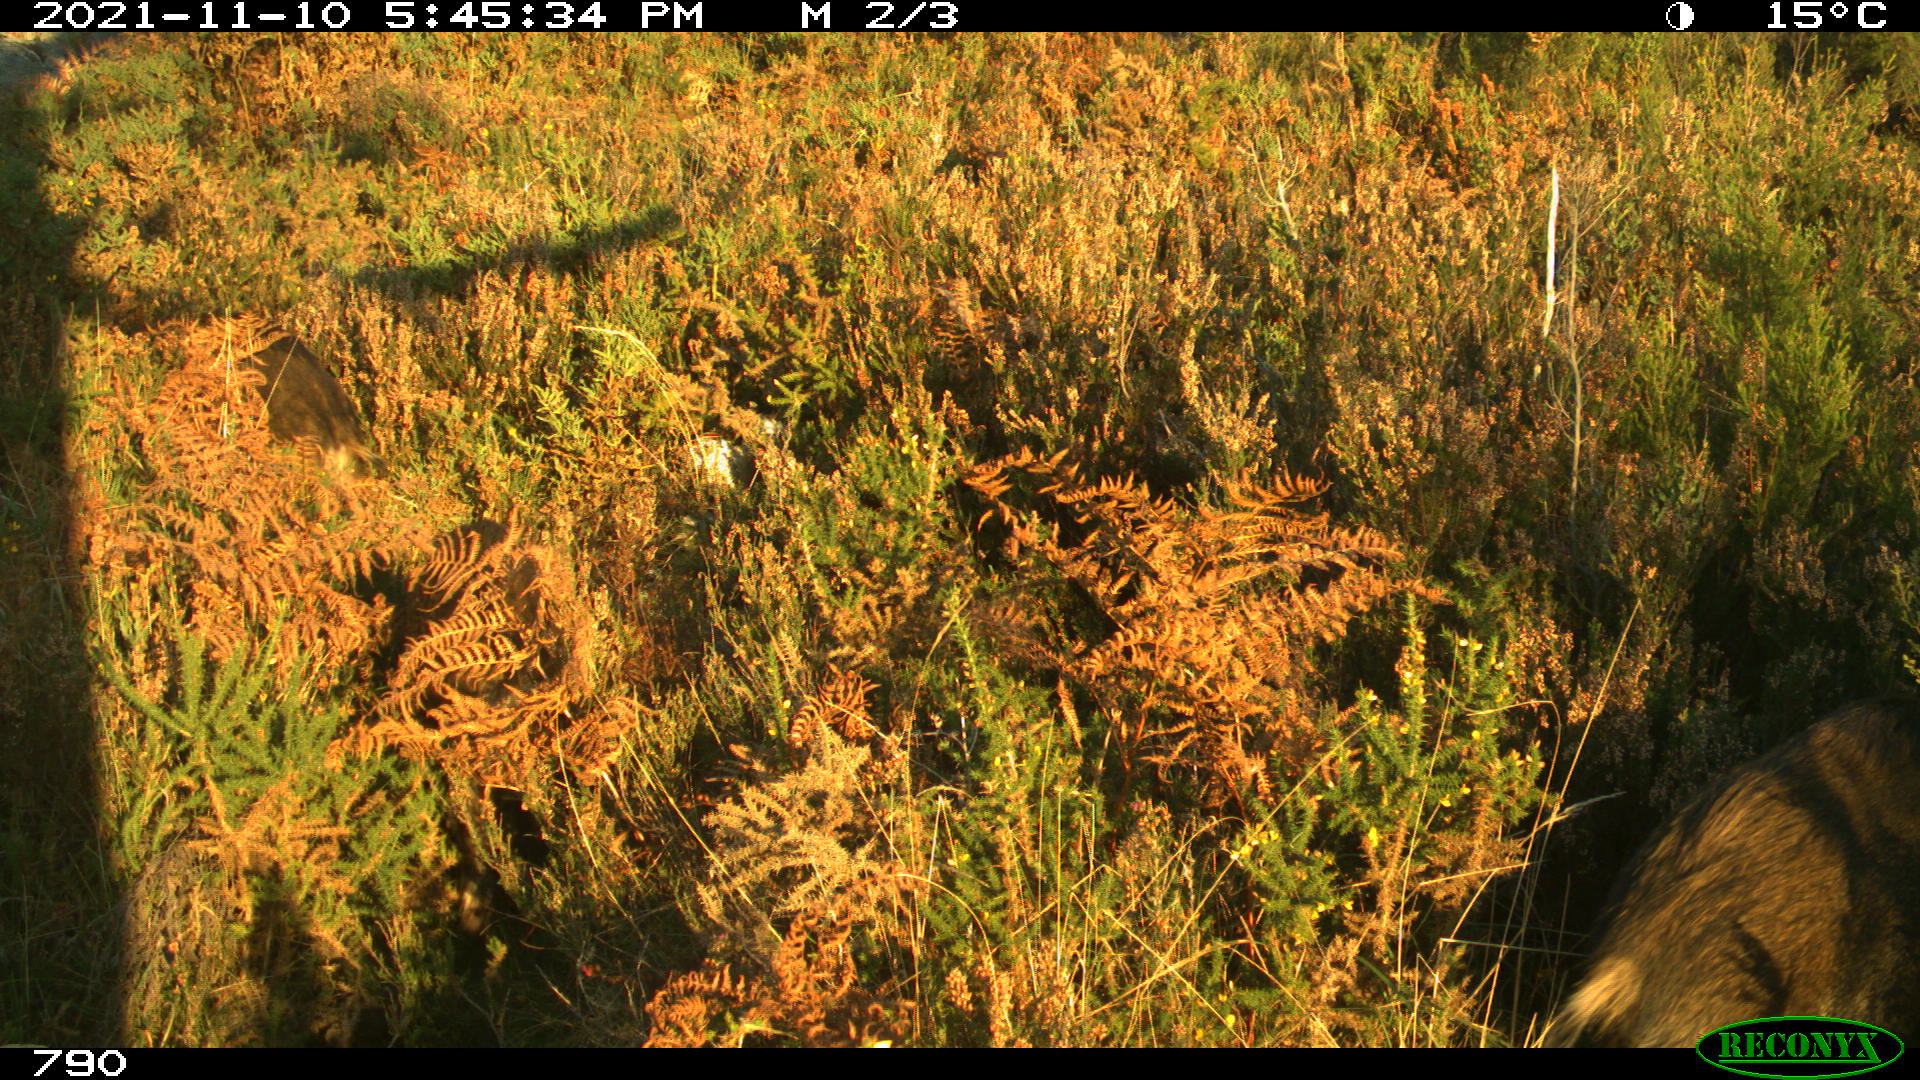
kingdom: Animalia
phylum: Chordata
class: Mammalia
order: Artiodactyla
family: Suidae
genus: Sus
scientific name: Sus scrofa
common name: Wild boar
